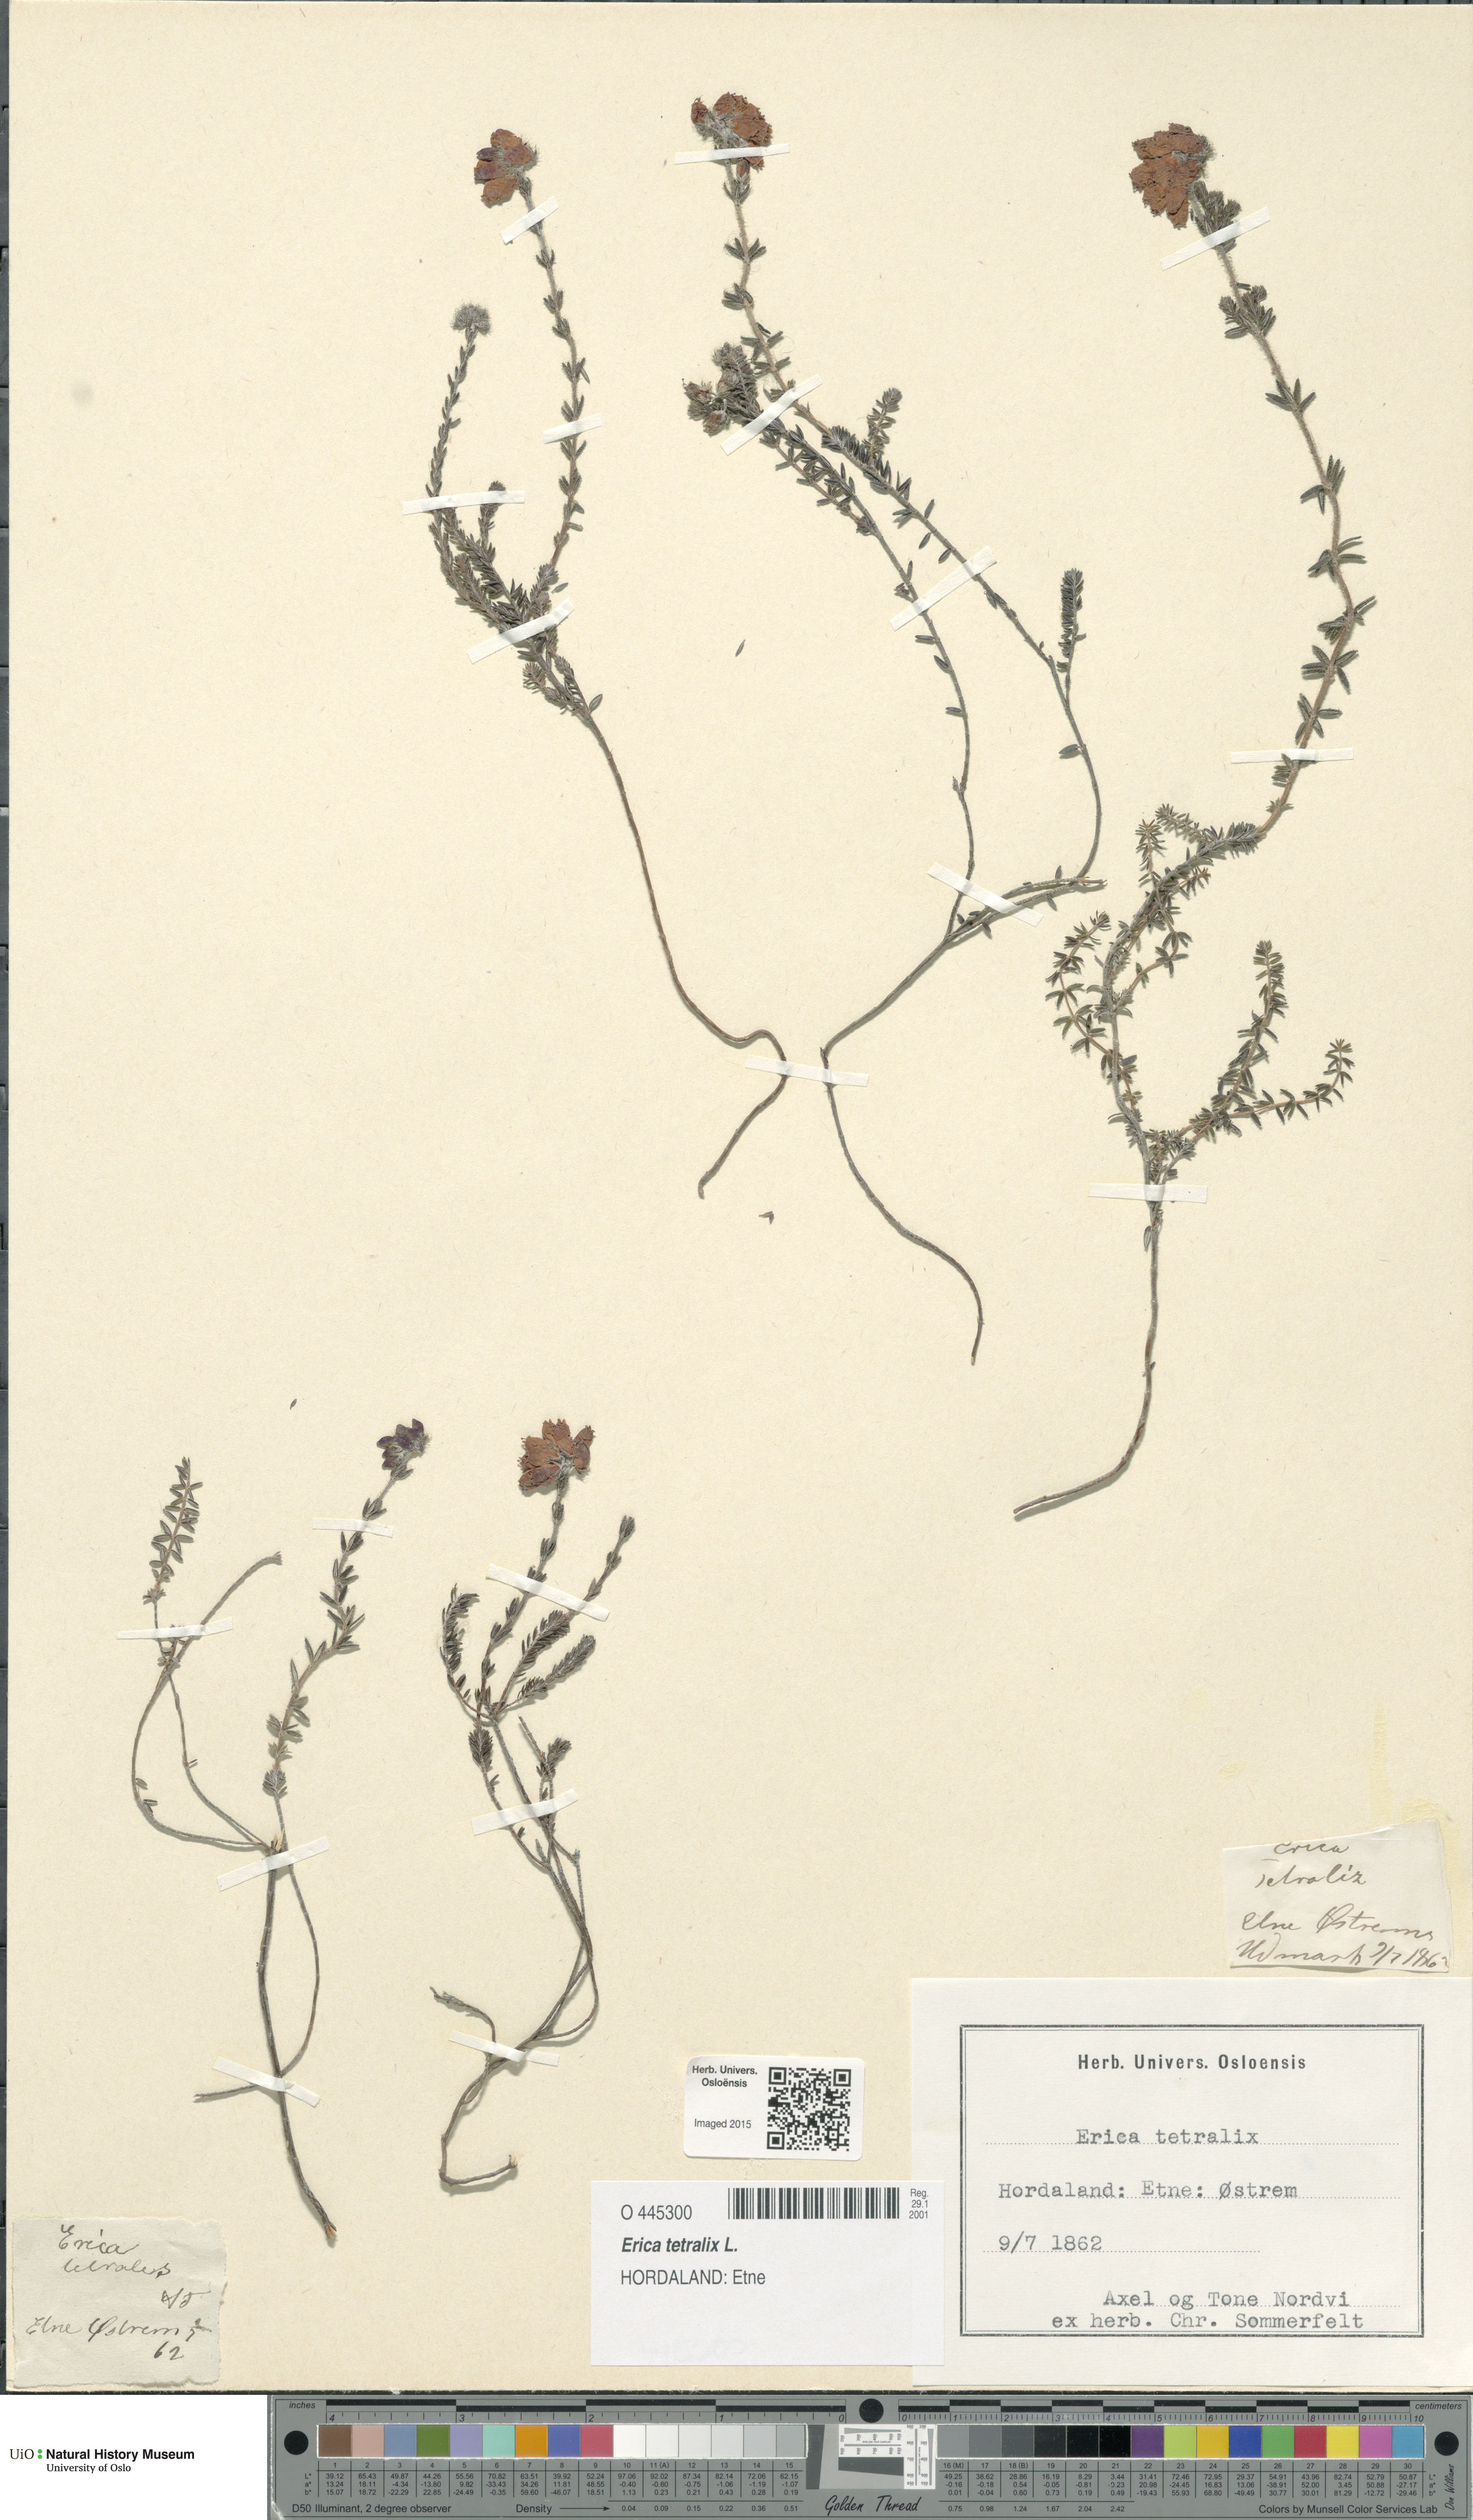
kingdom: Plantae
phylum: Tracheophyta
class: Magnoliopsida
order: Ericales
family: Ericaceae
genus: Erica
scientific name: Erica tetralix
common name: Cross-leaved heath
